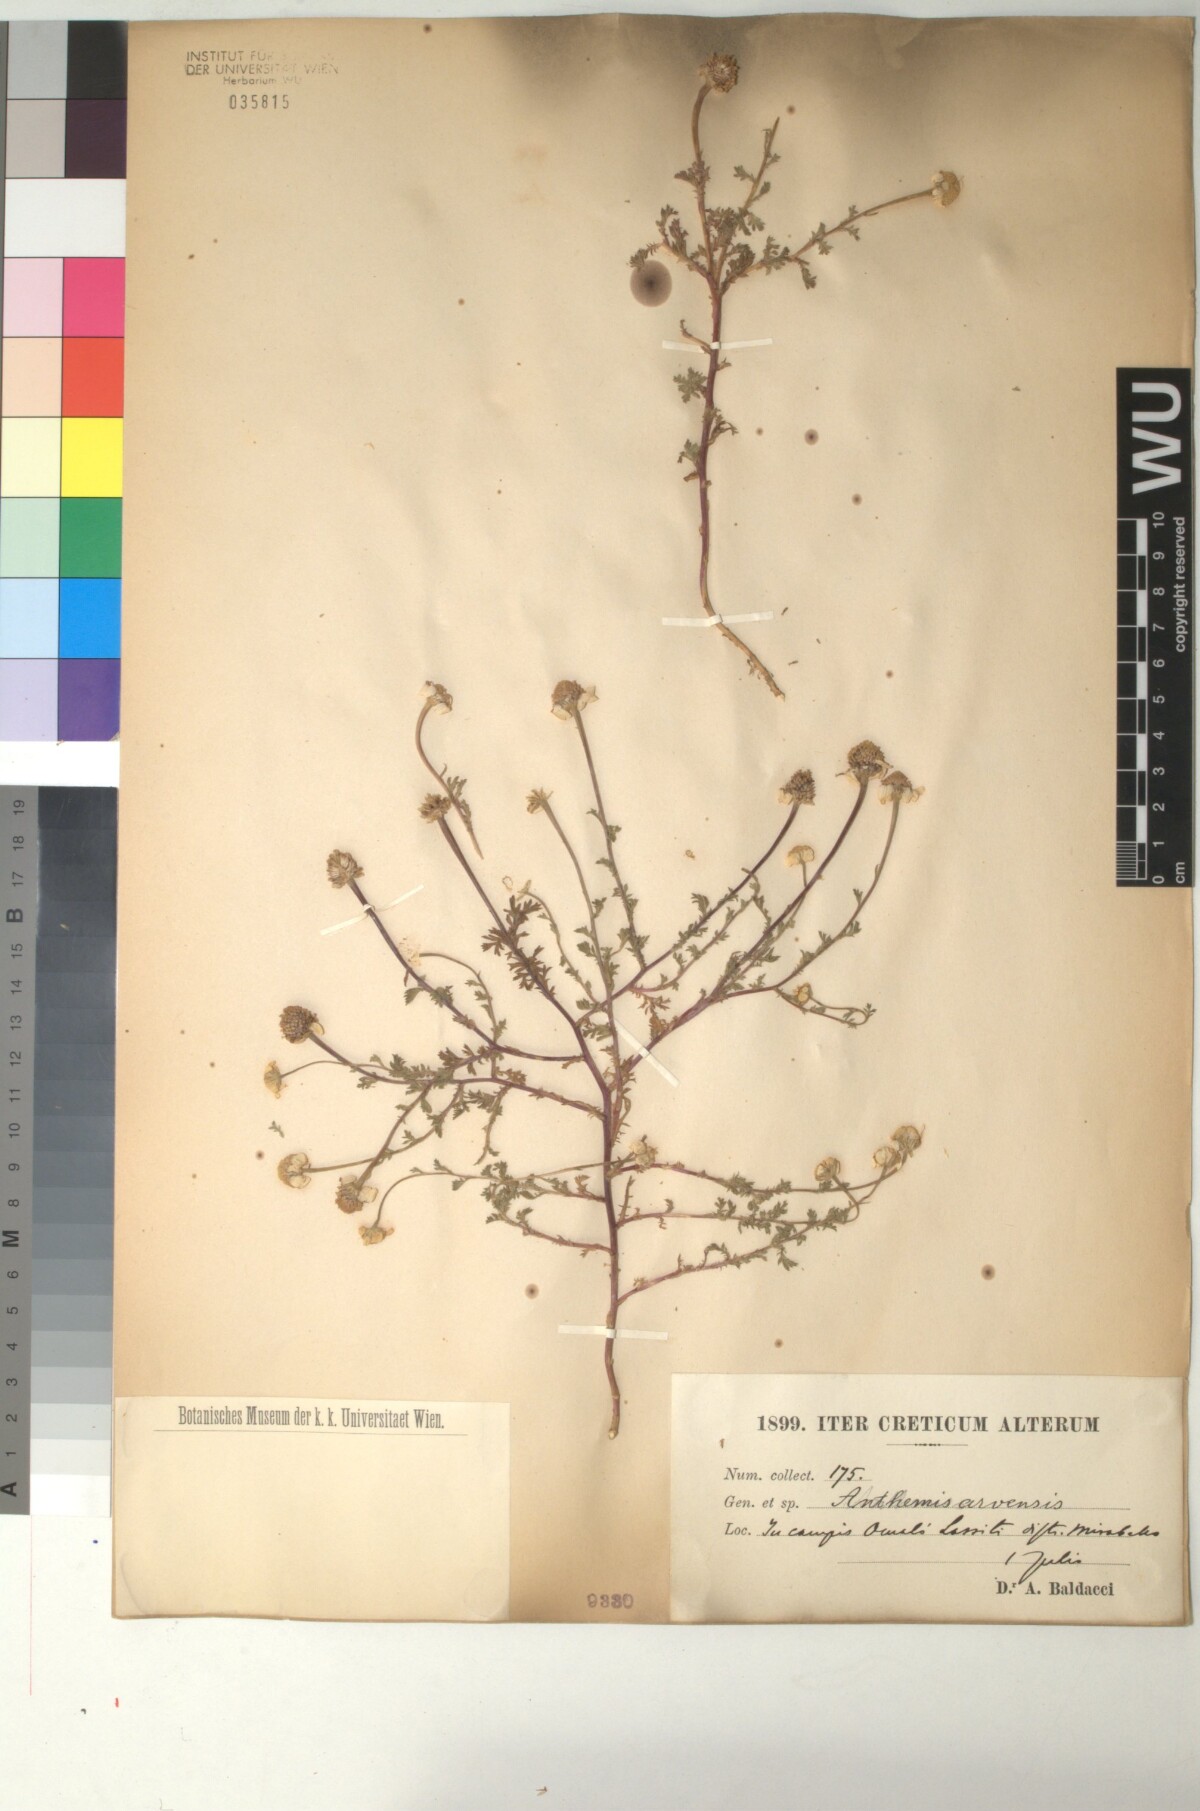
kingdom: Plantae
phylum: Tracheophyta
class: Magnoliopsida
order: Asterales
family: Asteraceae
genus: Anthemis
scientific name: Anthemis arvensis
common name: Corn chamomile
